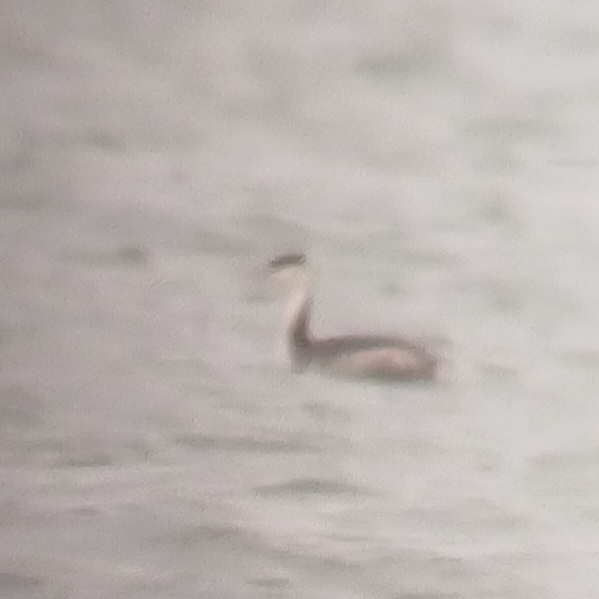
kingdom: Animalia
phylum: Chordata
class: Aves
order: Podicipediformes
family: Podicipedidae
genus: Podiceps
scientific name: Podiceps cristatus
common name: Toppet lappedykker
